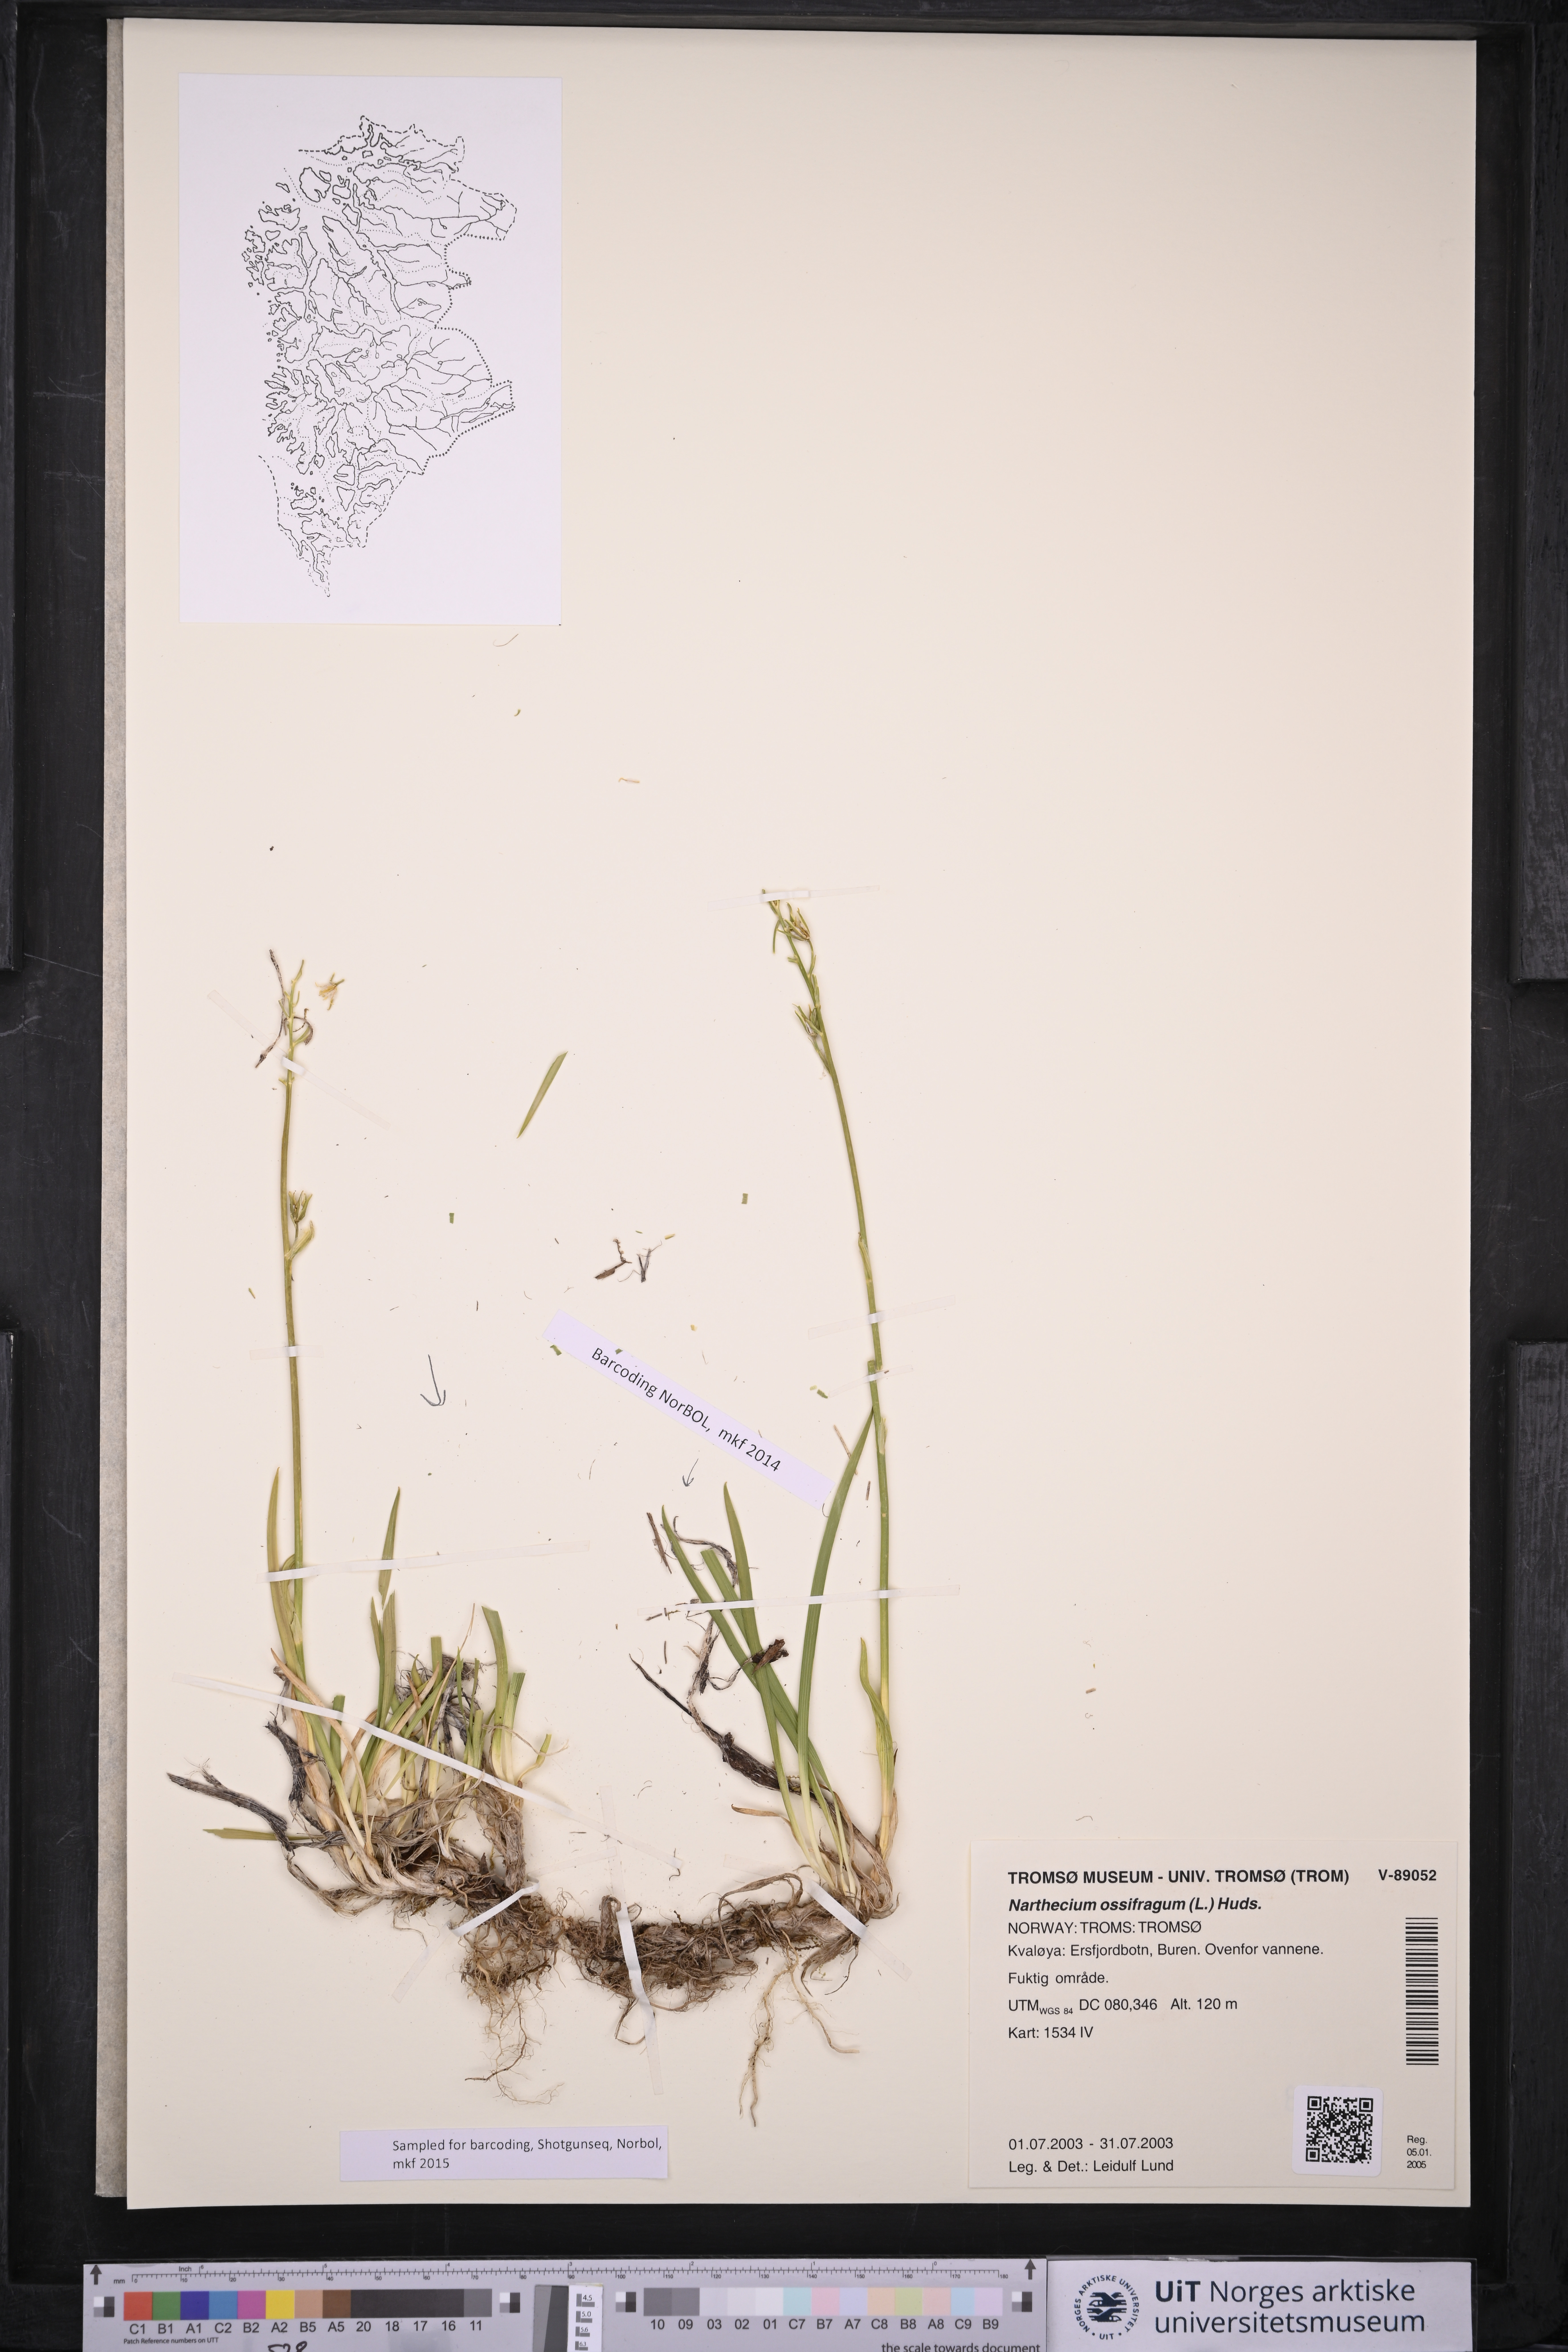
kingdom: Plantae
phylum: Tracheophyta
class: Liliopsida
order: Dioscoreales
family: Nartheciaceae
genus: Narthecium
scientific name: Narthecium ossifragum
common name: Bog asphodel
